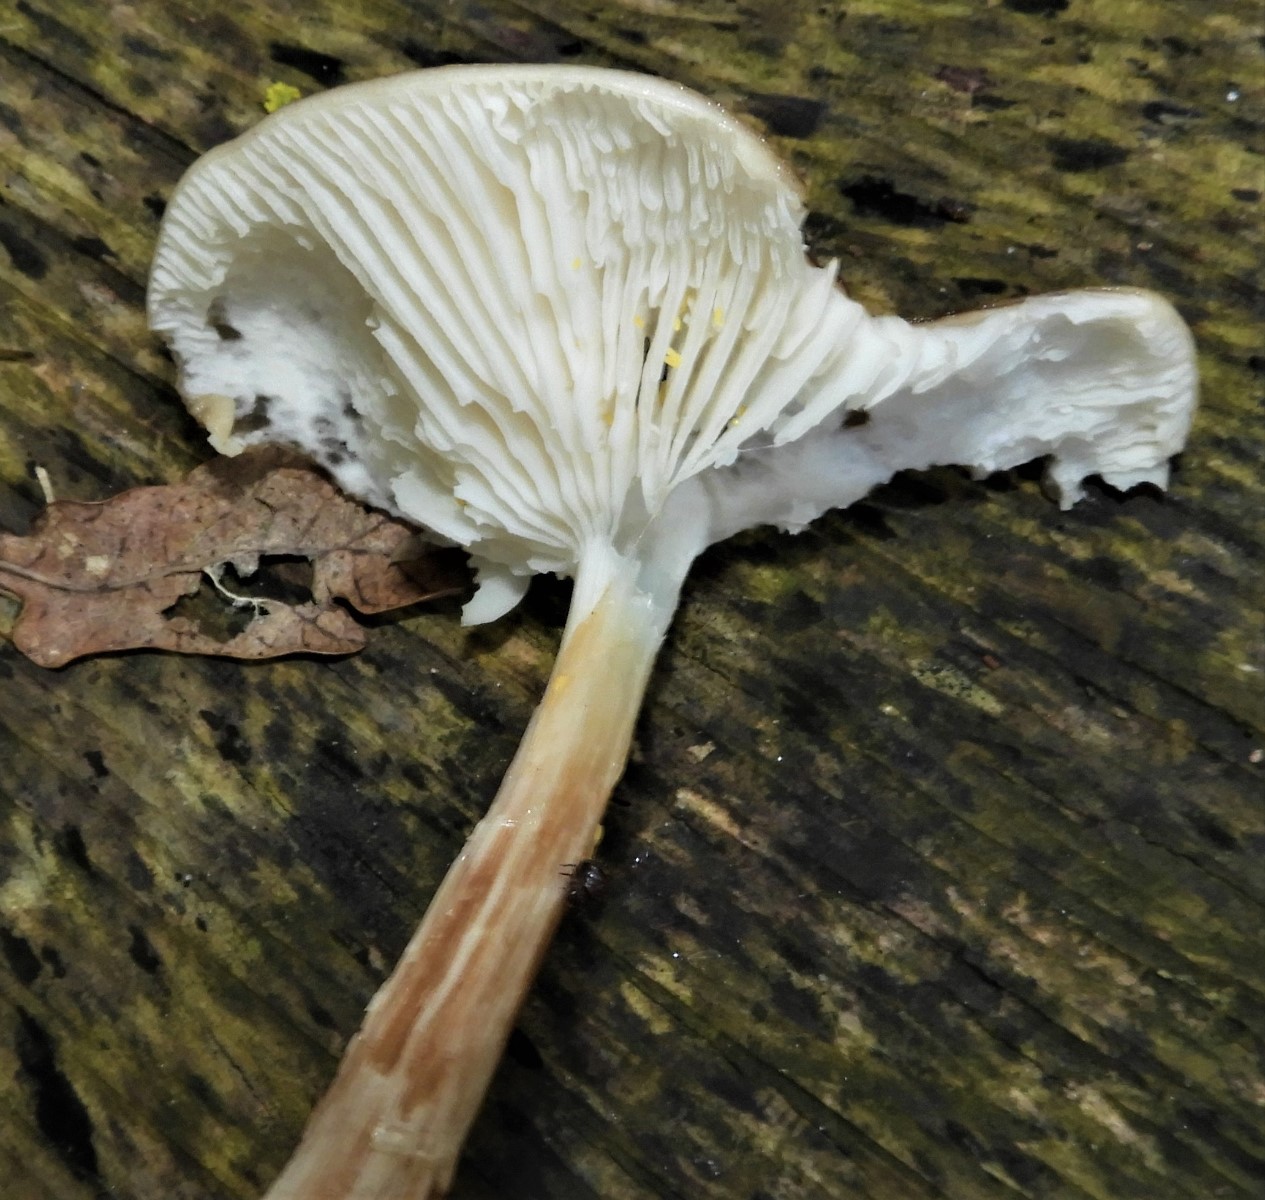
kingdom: Fungi
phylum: Basidiomycota
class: Agaricomycetes
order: Agaricales
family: Physalacriaceae
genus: Hymenopellis
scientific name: Hymenopellis radicata
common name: almindelig pælerodshat
